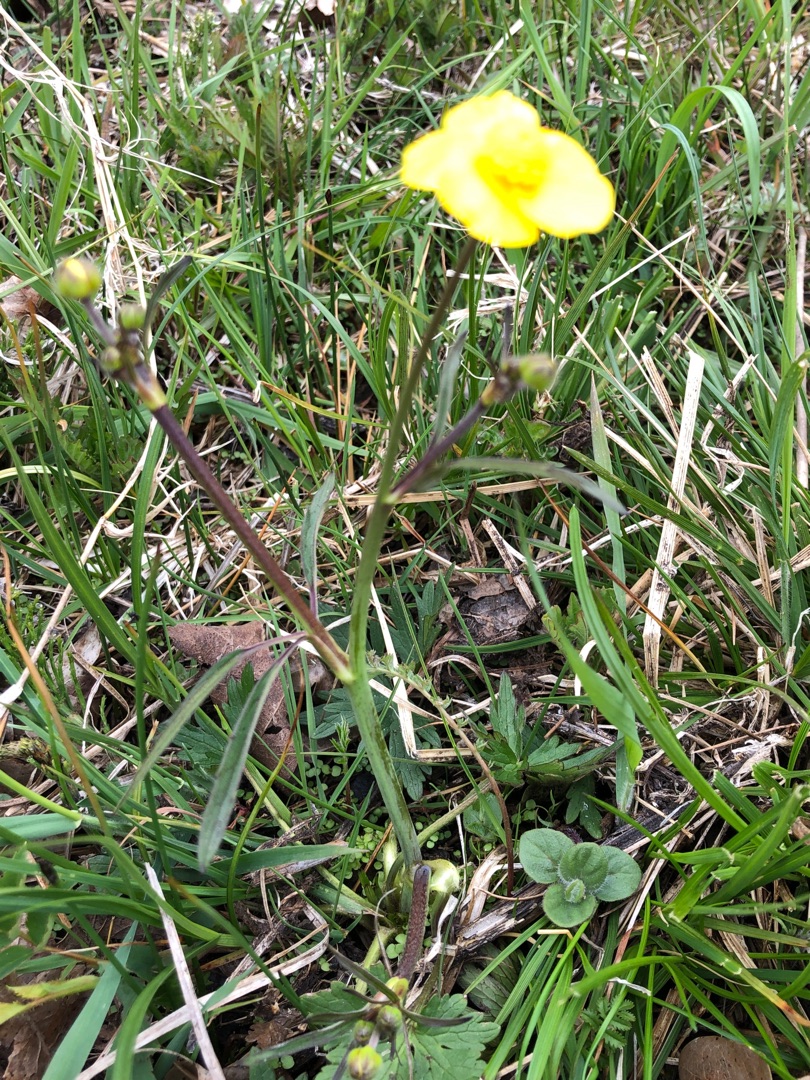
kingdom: Plantae
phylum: Tracheophyta
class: Magnoliopsida
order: Ranunculales
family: Ranunculaceae
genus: Ranunculus
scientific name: Ranunculus acris
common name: Bidende ranunkel
